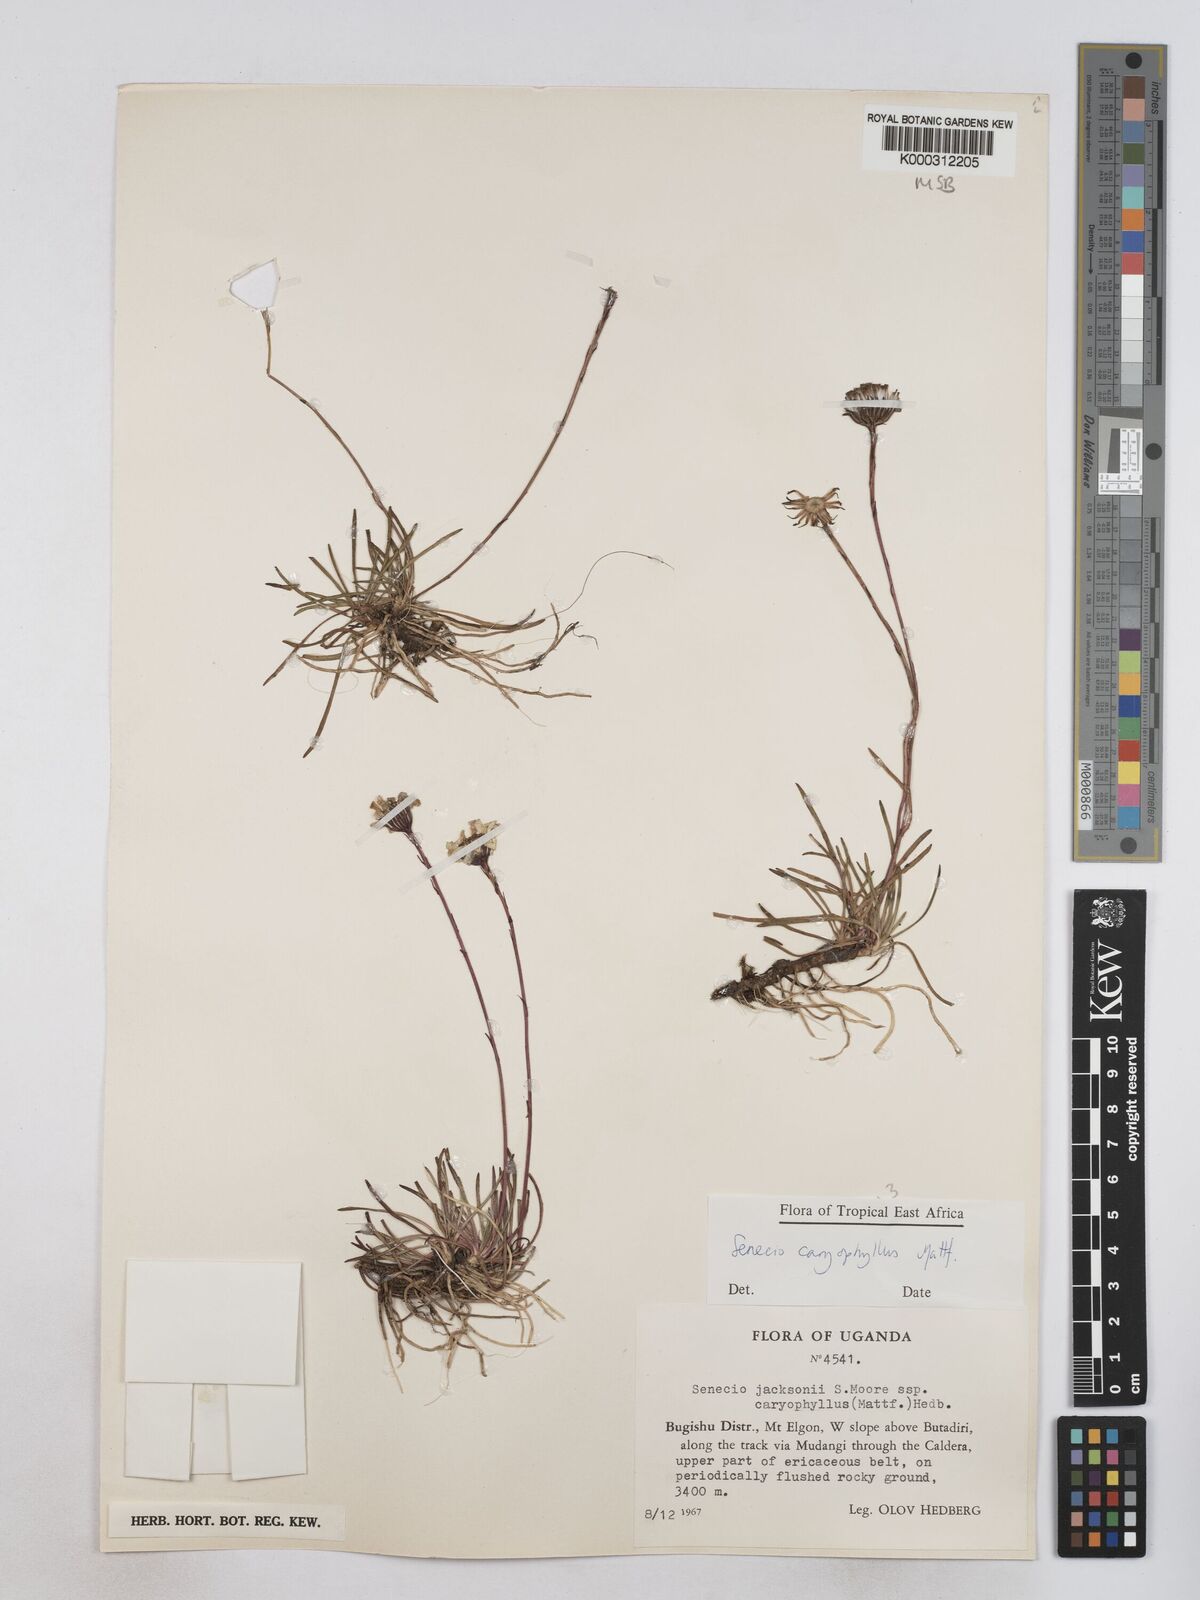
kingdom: Plantae
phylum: Tracheophyta
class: Magnoliopsida
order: Asterales
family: Asteraceae
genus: Senecio
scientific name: Senecio jacksonii
